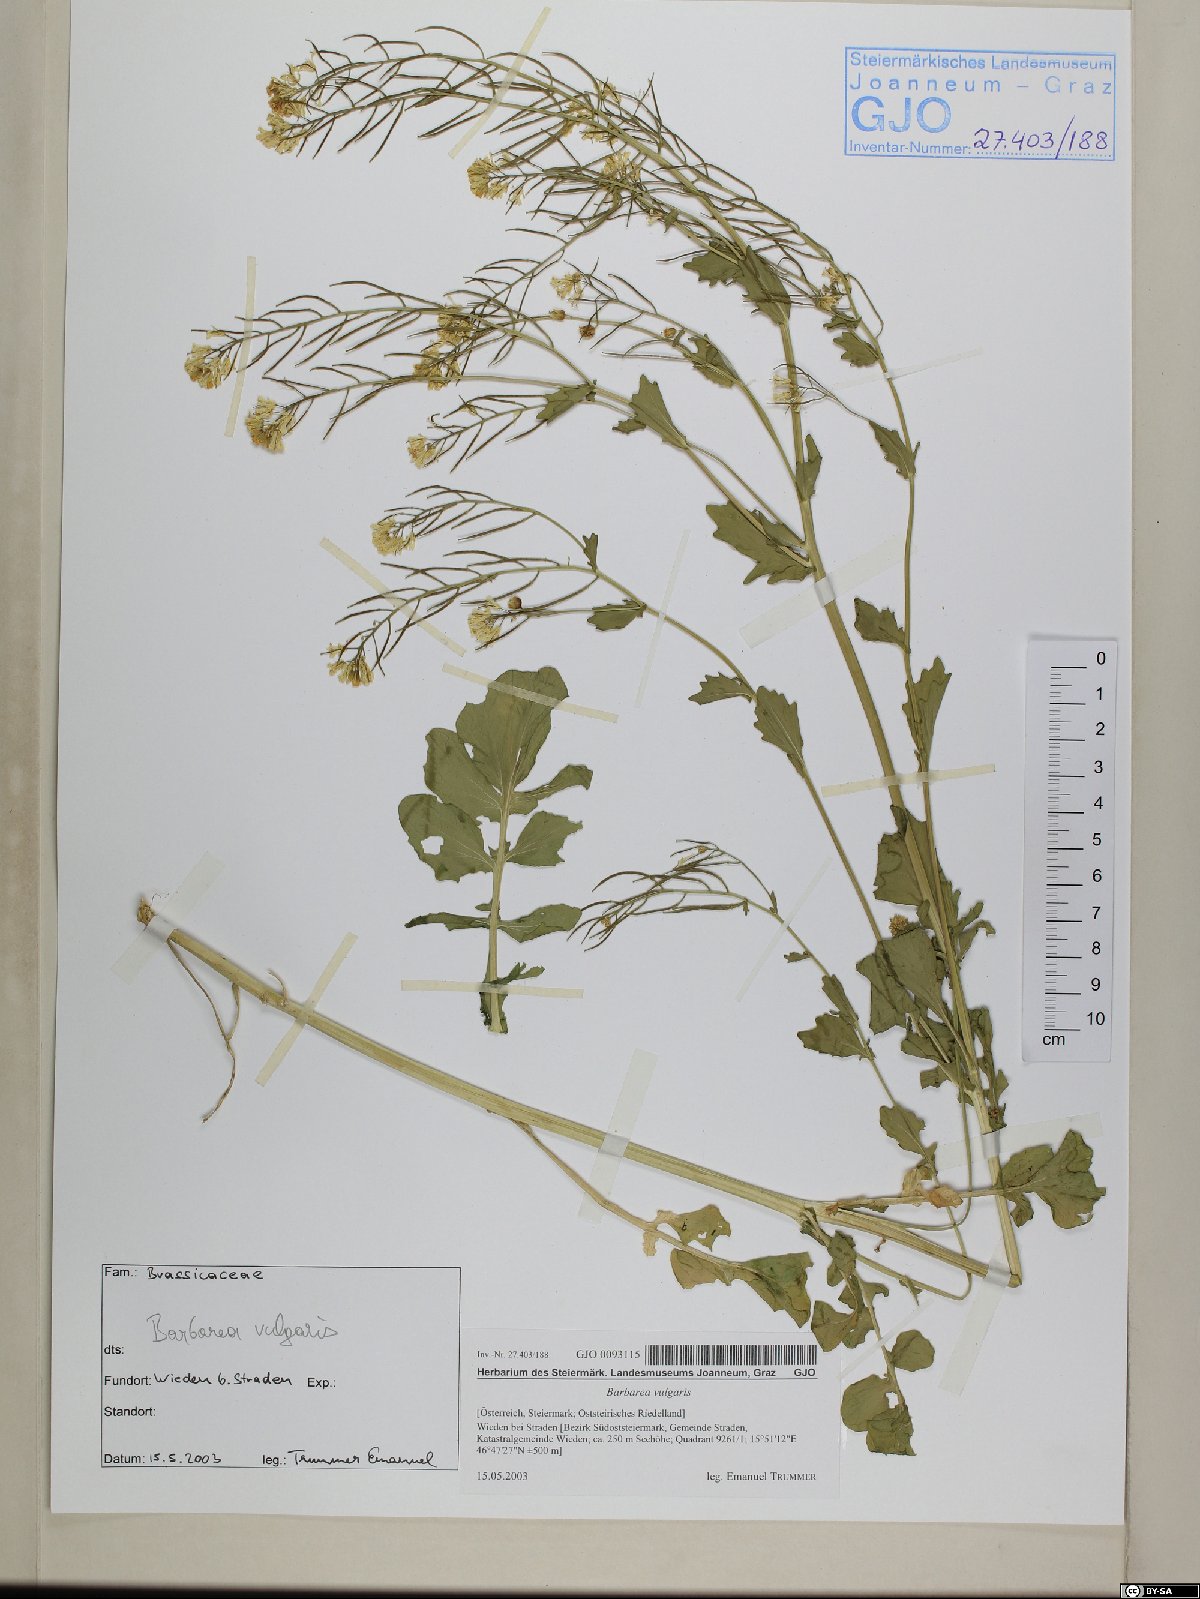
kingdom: Plantae
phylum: Tracheophyta
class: Magnoliopsida
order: Brassicales
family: Brassicaceae
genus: Barbarea
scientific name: Barbarea vulgaris
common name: Cressy-greens
